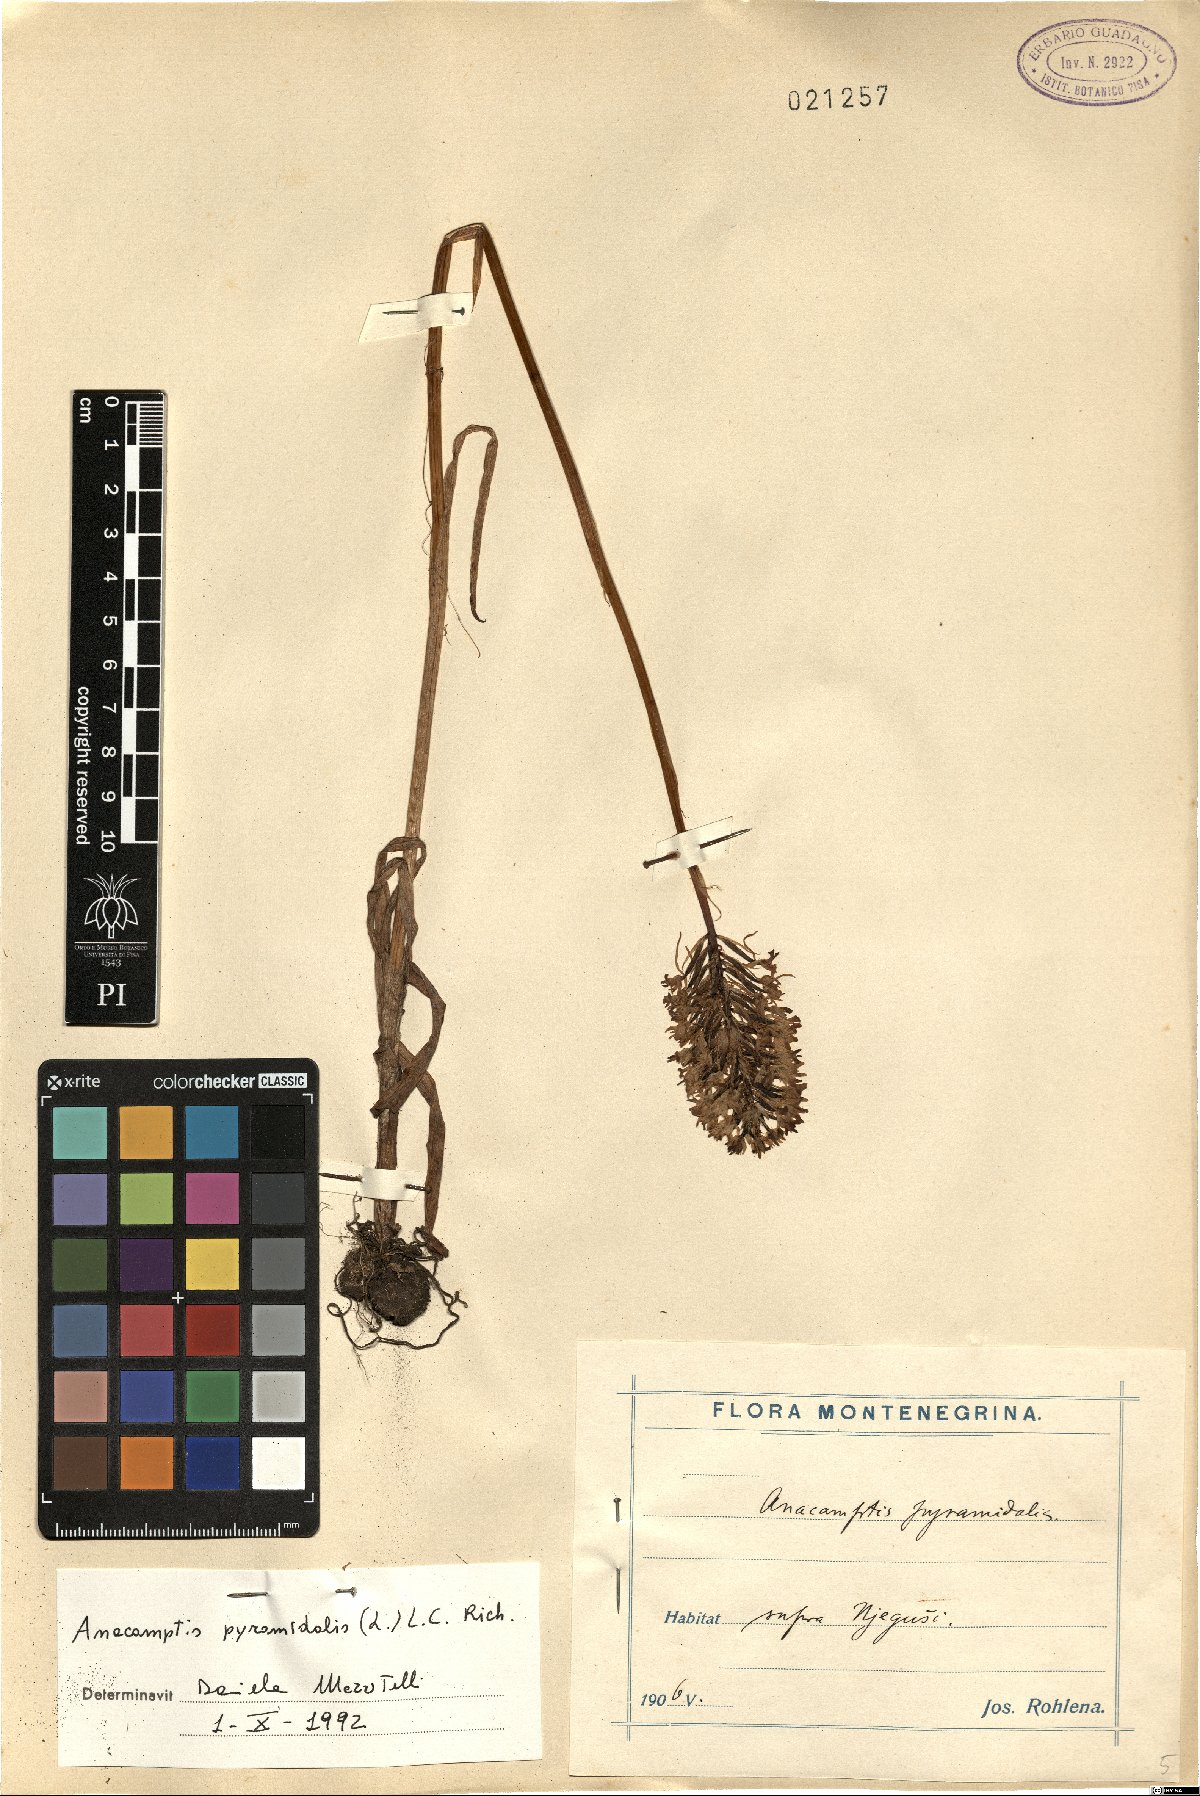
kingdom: Plantae
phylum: Tracheophyta
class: Liliopsida
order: Asparagales
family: Orchidaceae
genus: Anacamptis
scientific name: Anacamptis pyramidalis
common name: Pyramidal orchid
